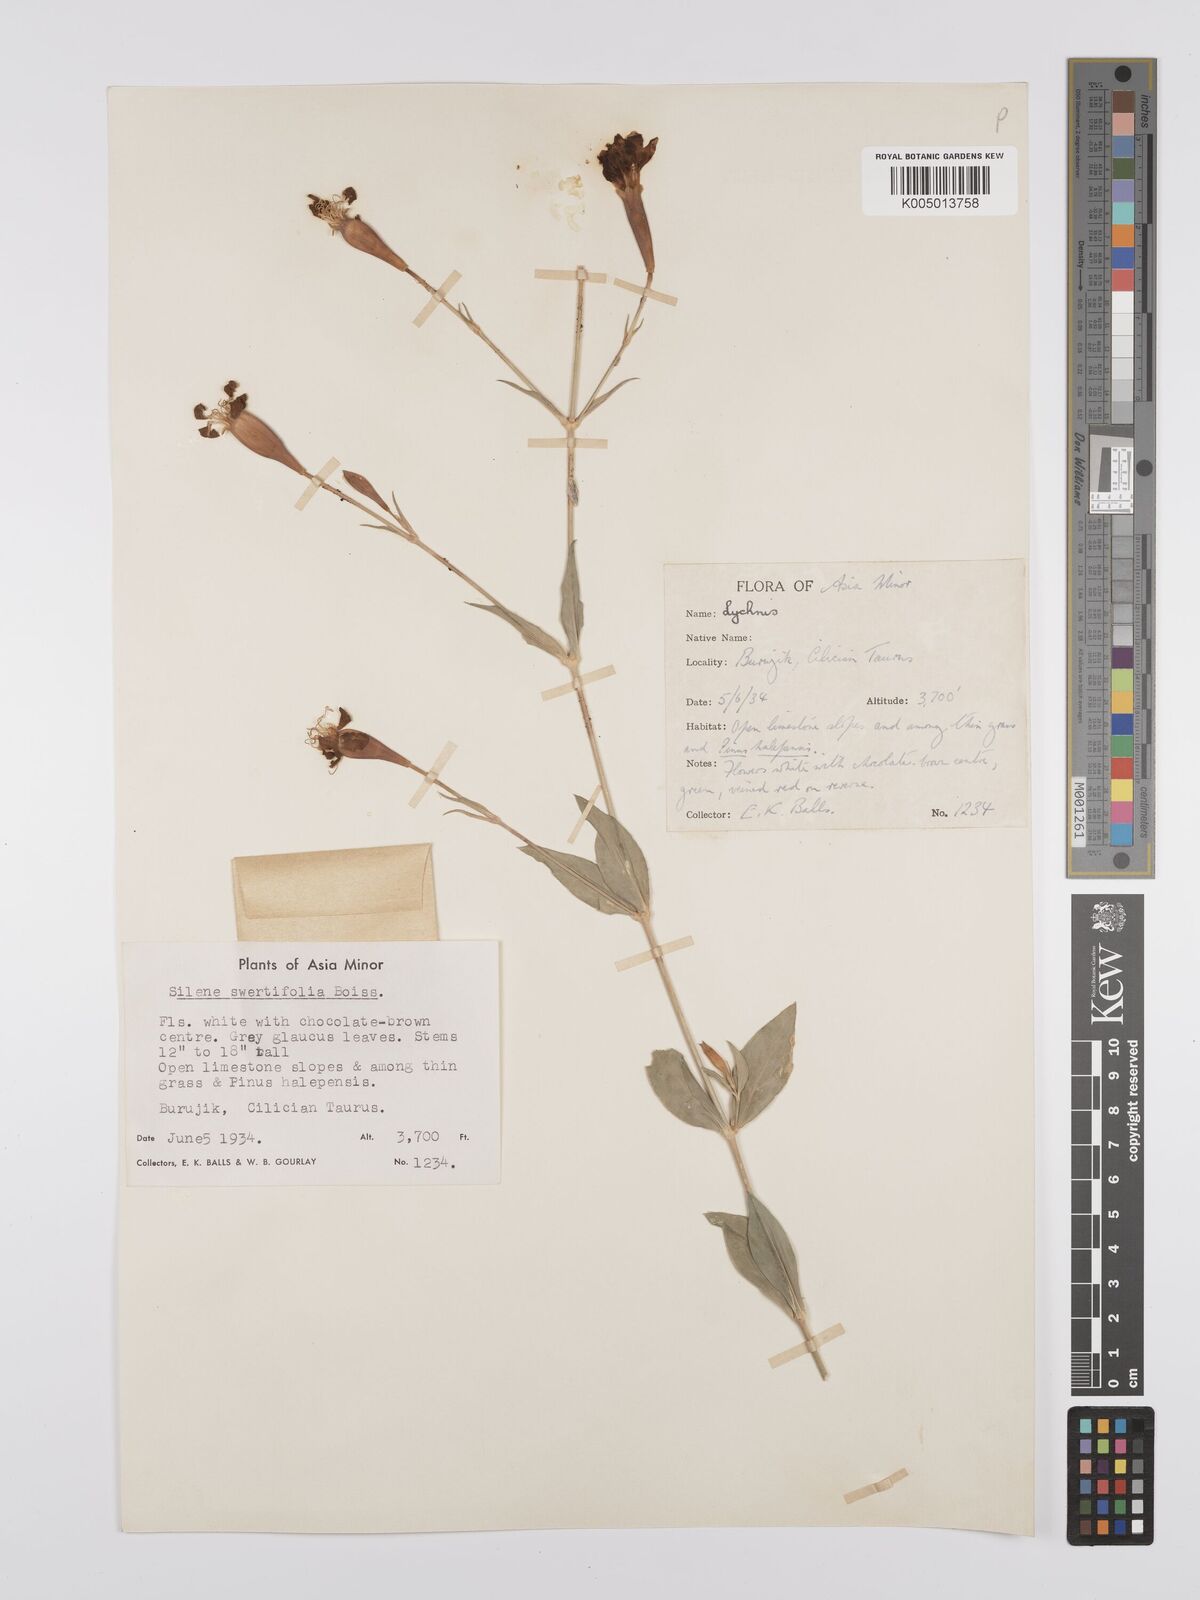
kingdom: Plantae
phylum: Tracheophyta
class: Magnoliopsida
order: Caryophyllales
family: Caryophyllaceae
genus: Silene
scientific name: Silene swertiifolia
